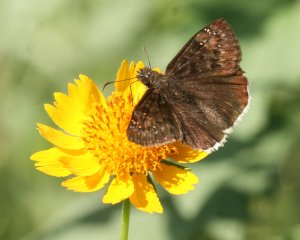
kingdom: Animalia
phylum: Arthropoda
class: Insecta
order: Lepidoptera
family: Hesperiidae
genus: Erynnis
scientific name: Erynnis tristis
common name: Mournful Duskywing
